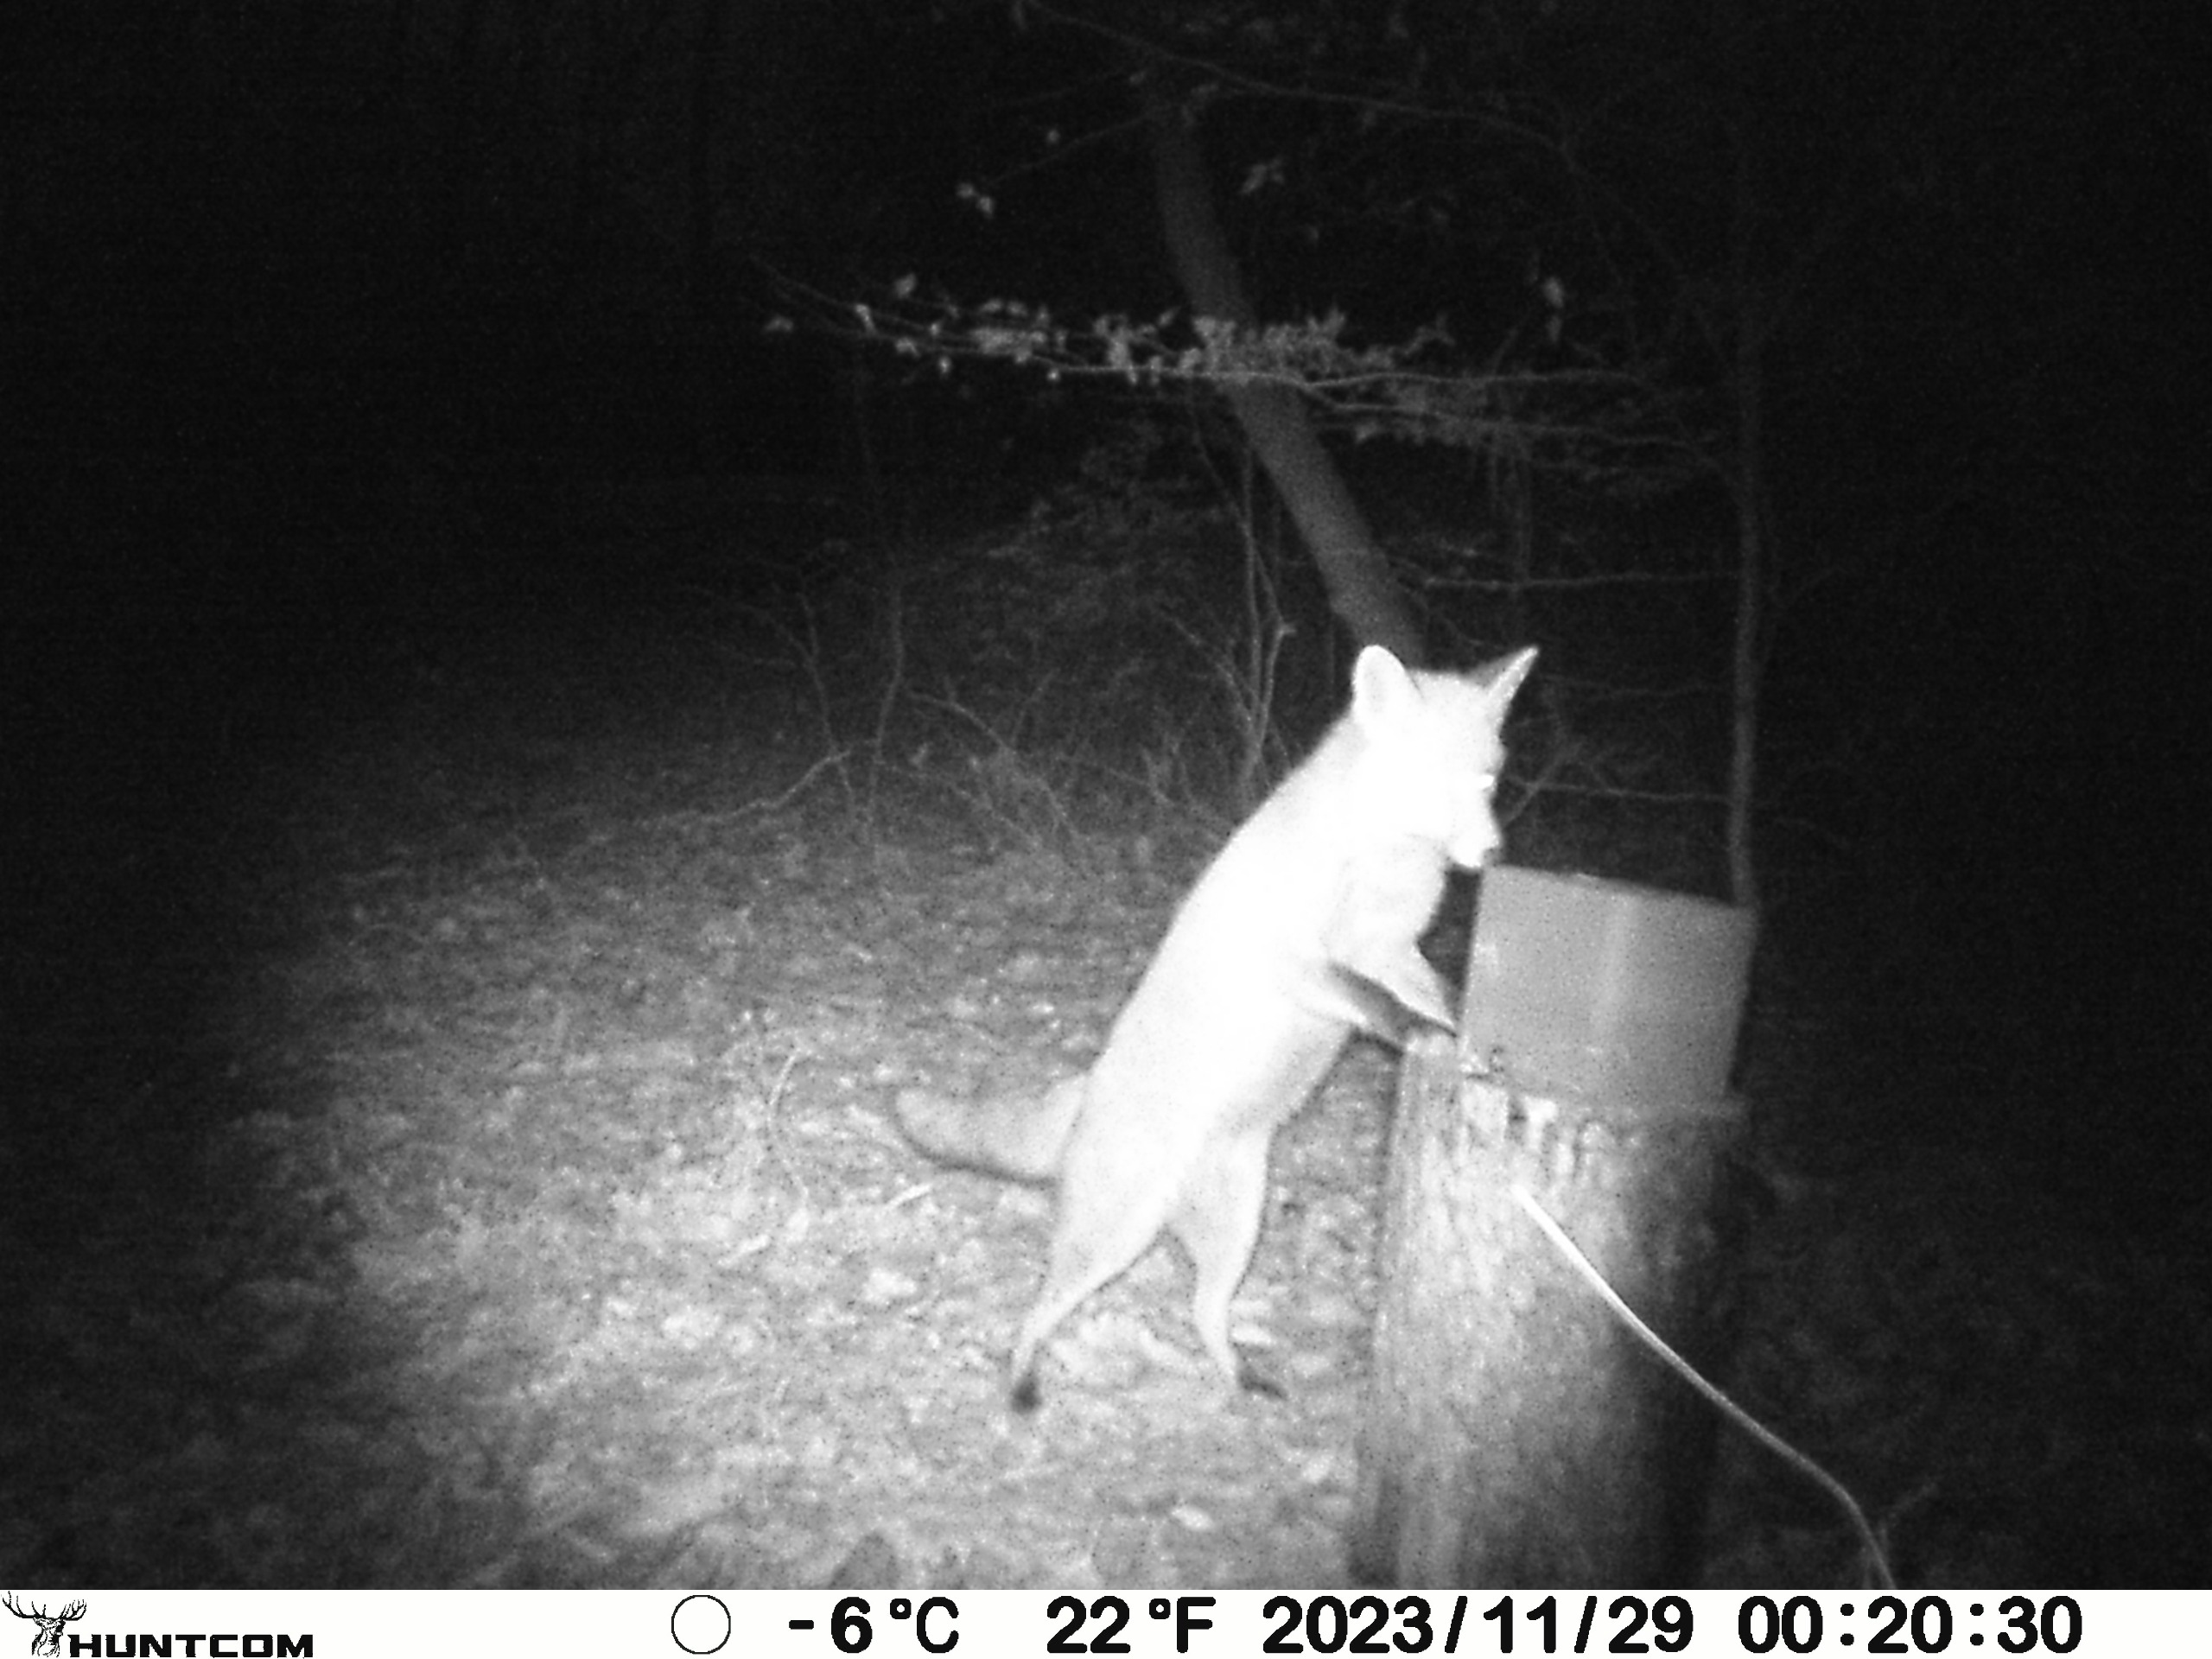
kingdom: Animalia
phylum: Chordata
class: Mammalia
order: Carnivora
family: Canidae
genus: Vulpes
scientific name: Vulpes vulpes
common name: Ræv
